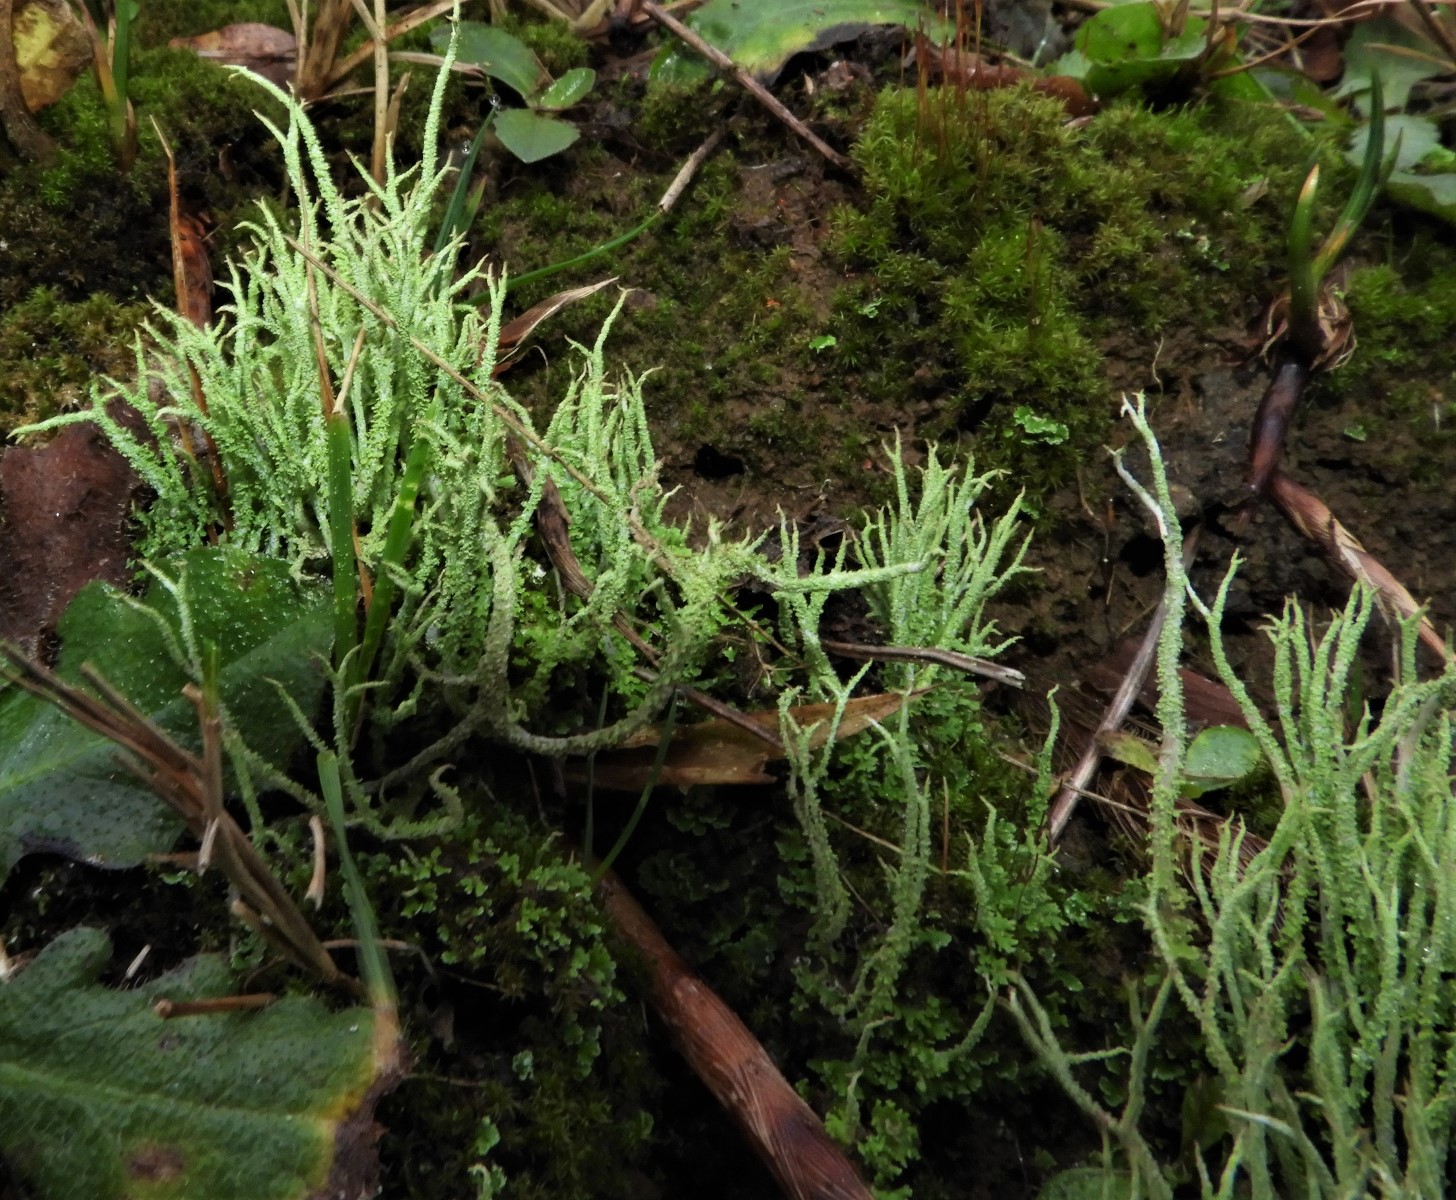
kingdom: Fungi
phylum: Ascomycota
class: Lecanoromycetes
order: Lecanorales
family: Cladoniaceae
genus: Cladonia
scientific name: Cladonia scabriuscula
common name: ru bægerlav
